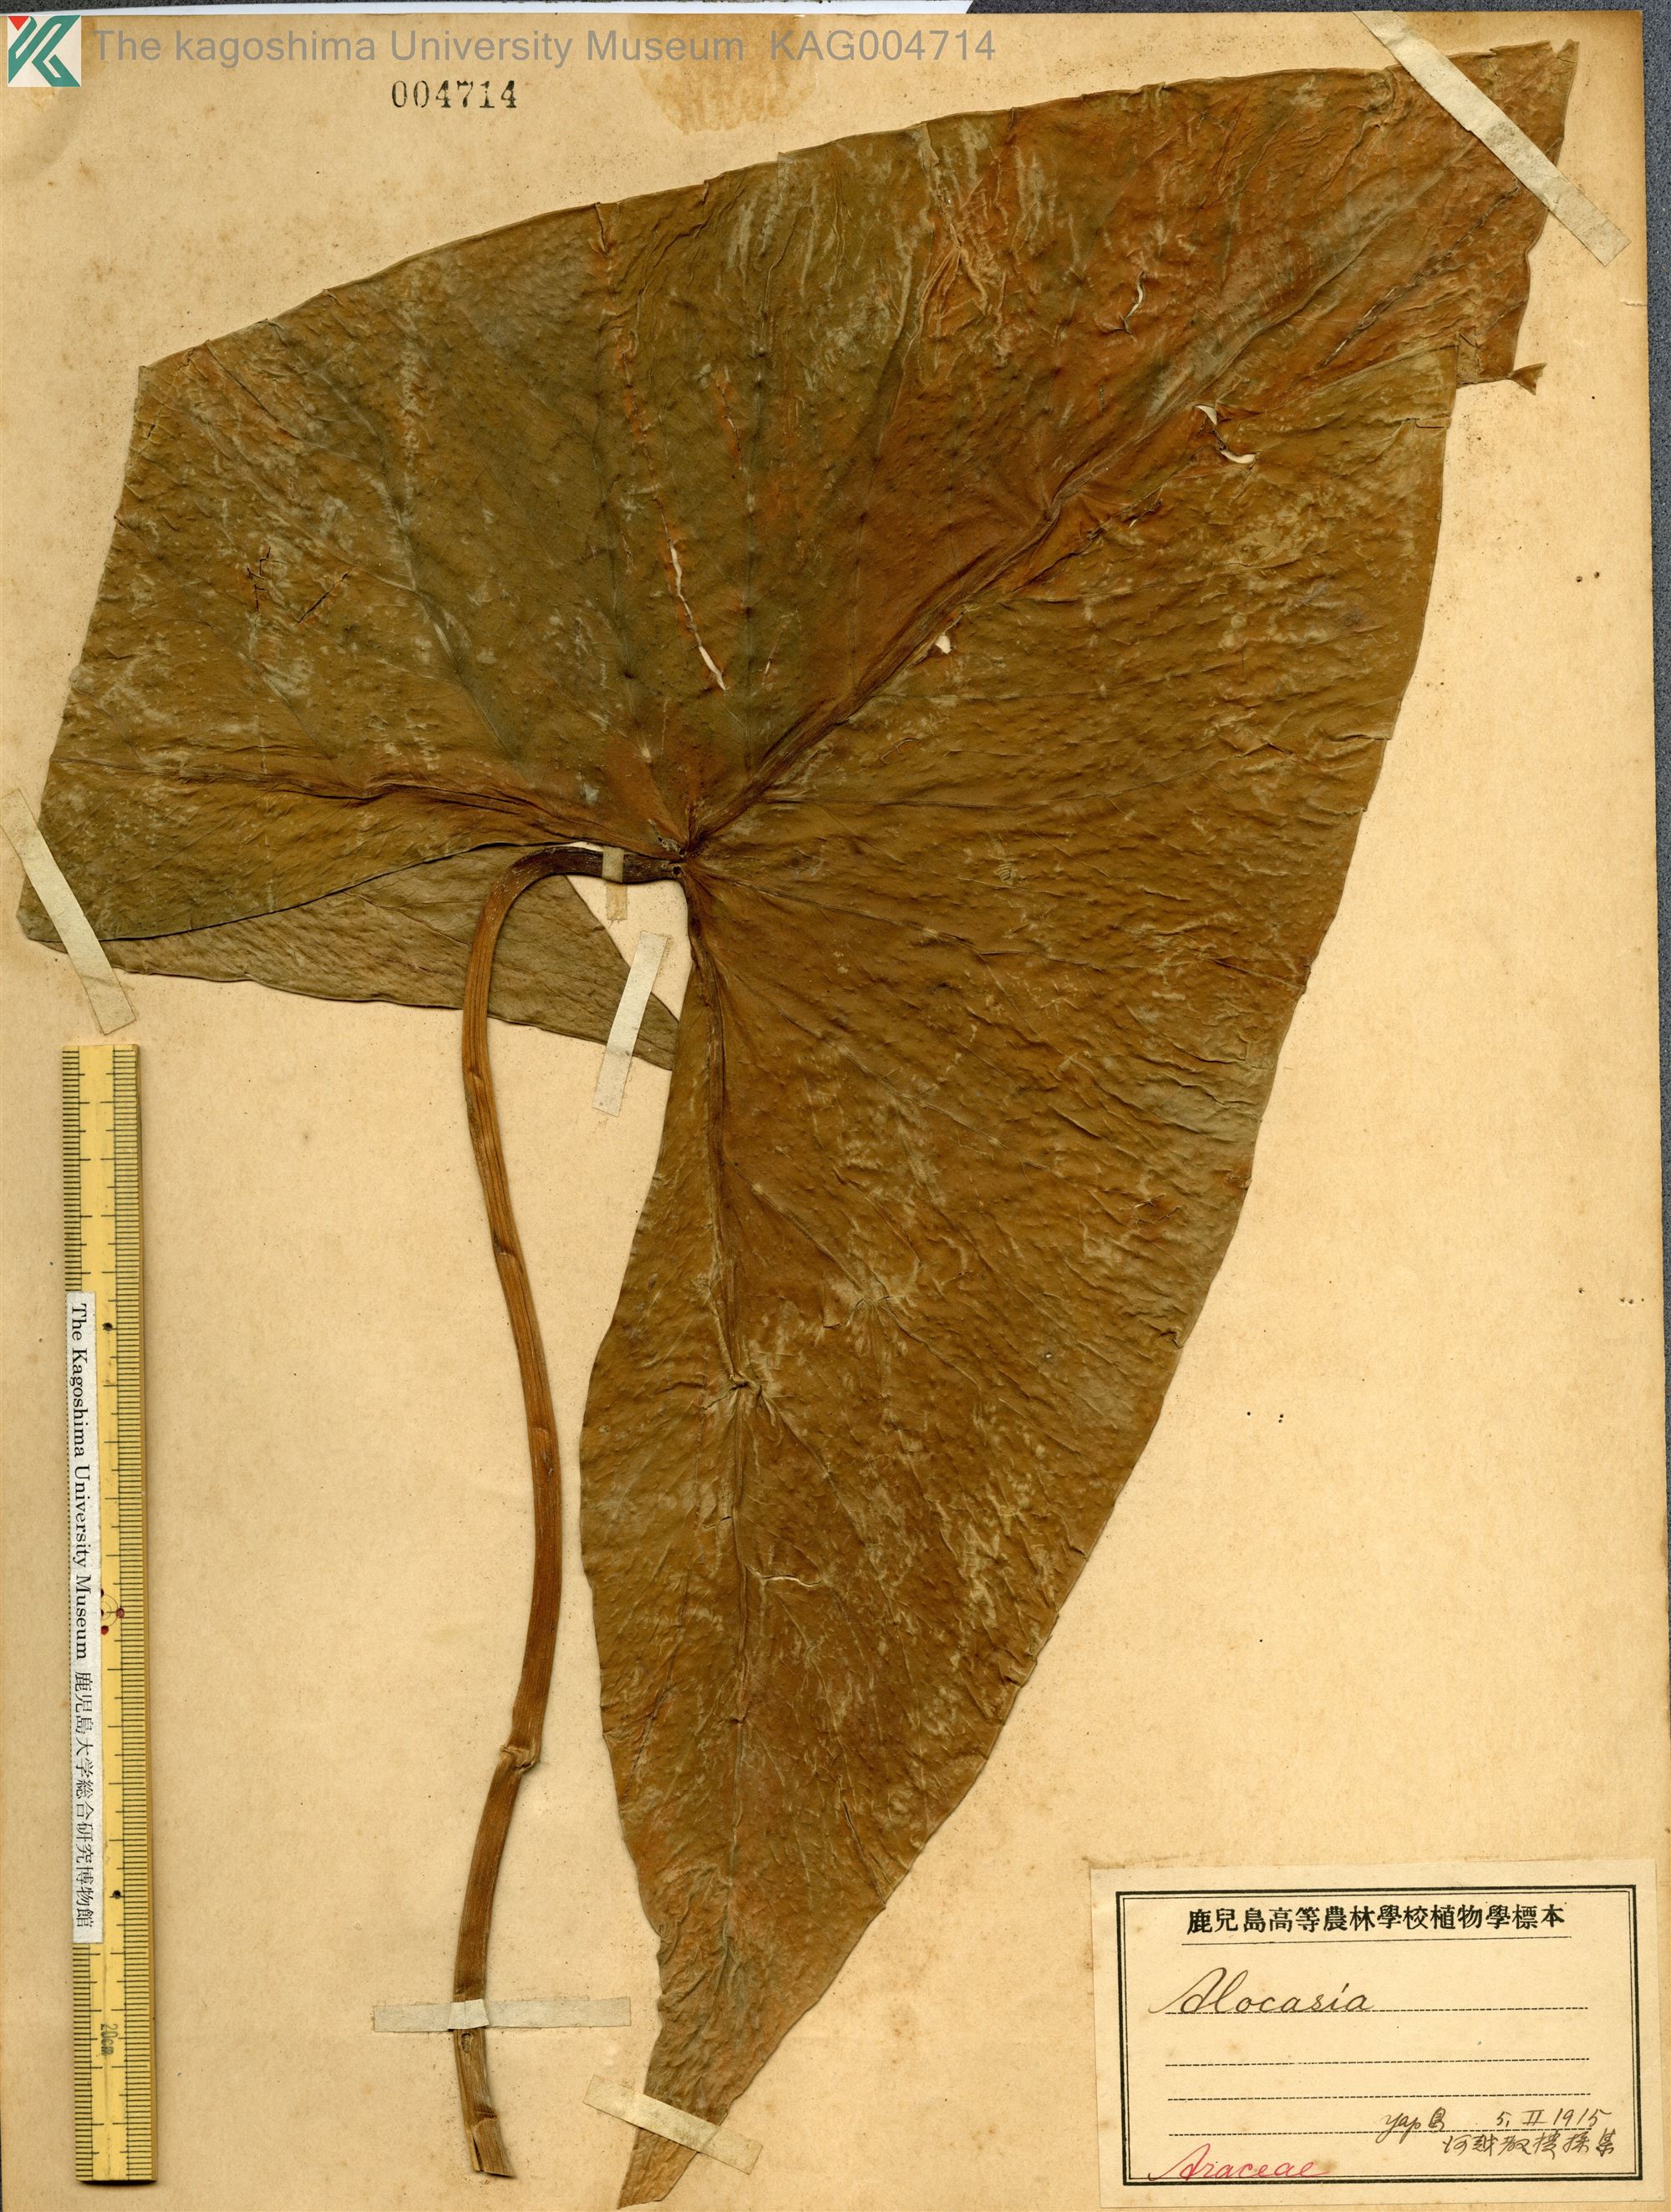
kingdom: Plantae
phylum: Tracheophyta
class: Liliopsida
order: Alismatales
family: Araceae
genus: Xanthosoma
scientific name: Xanthosoma sagittifolium
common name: Arrowleaf elephant's ear
